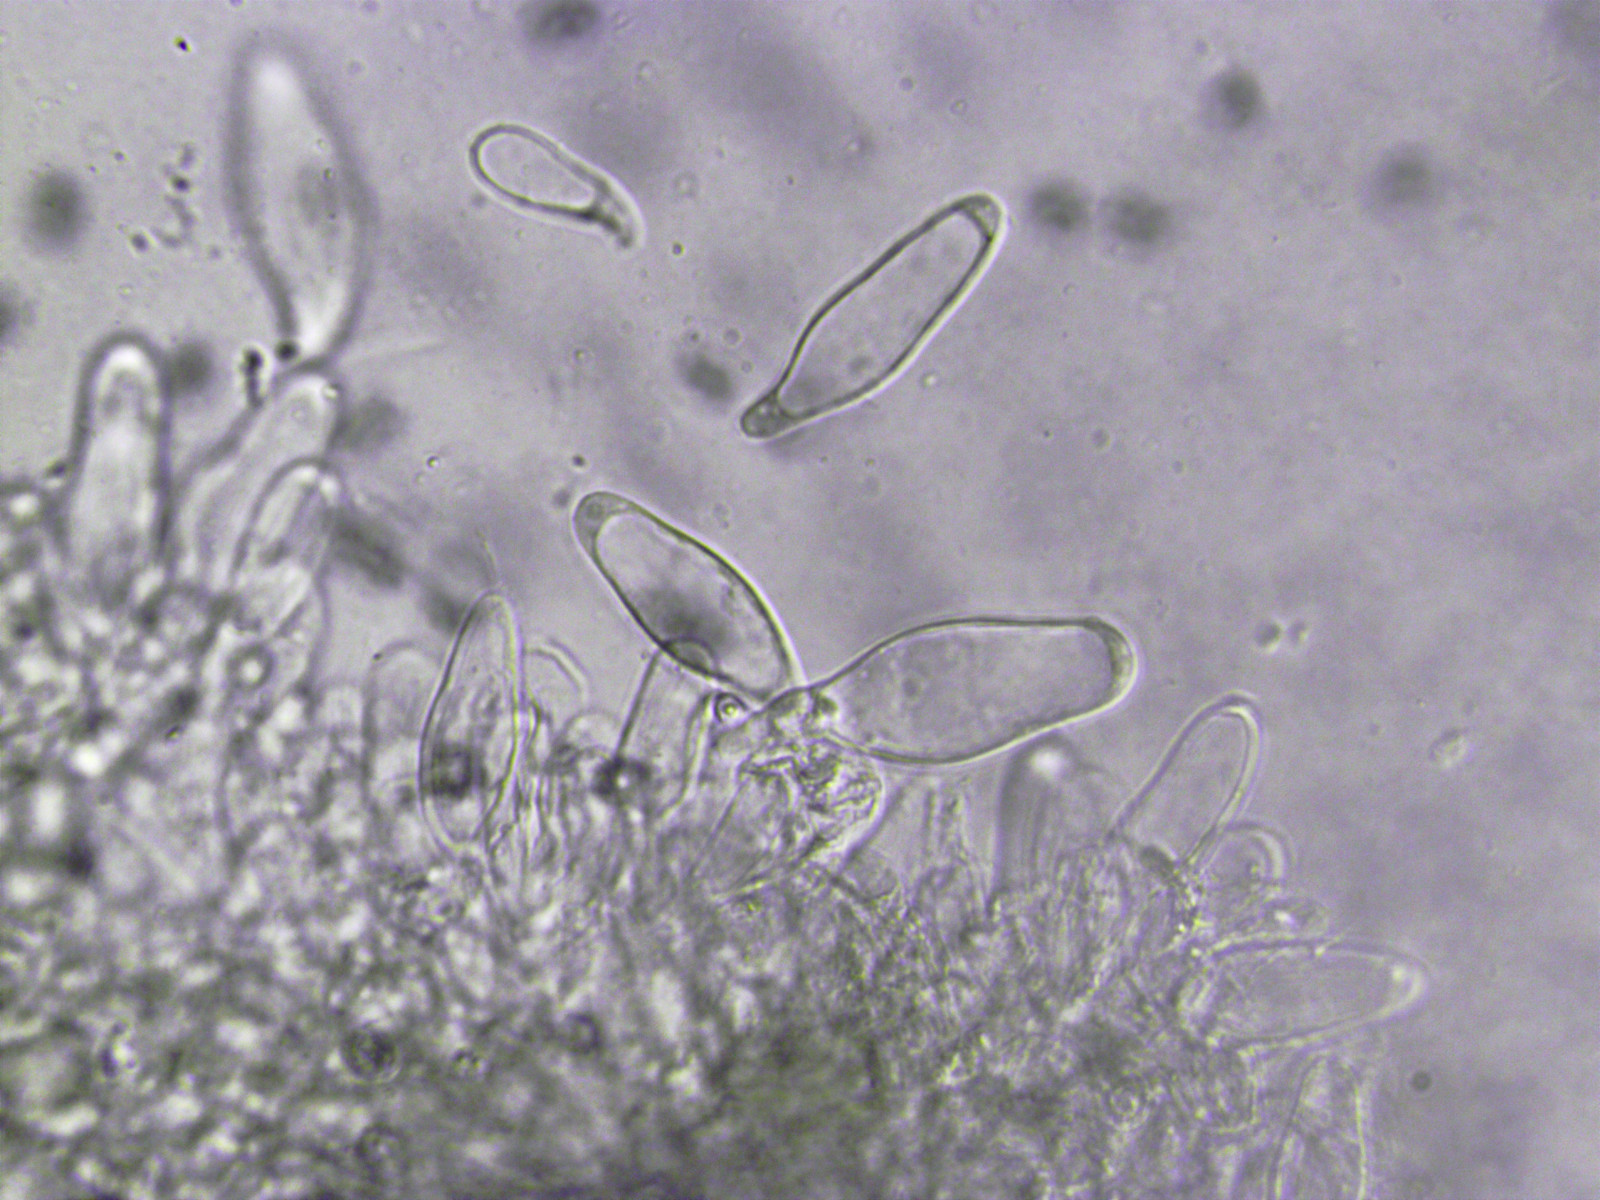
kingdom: Fungi
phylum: Basidiomycota
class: Agaricomycetes
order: Agaricales
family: Pluteaceae
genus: Pluteus
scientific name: Pluteus podospileus
